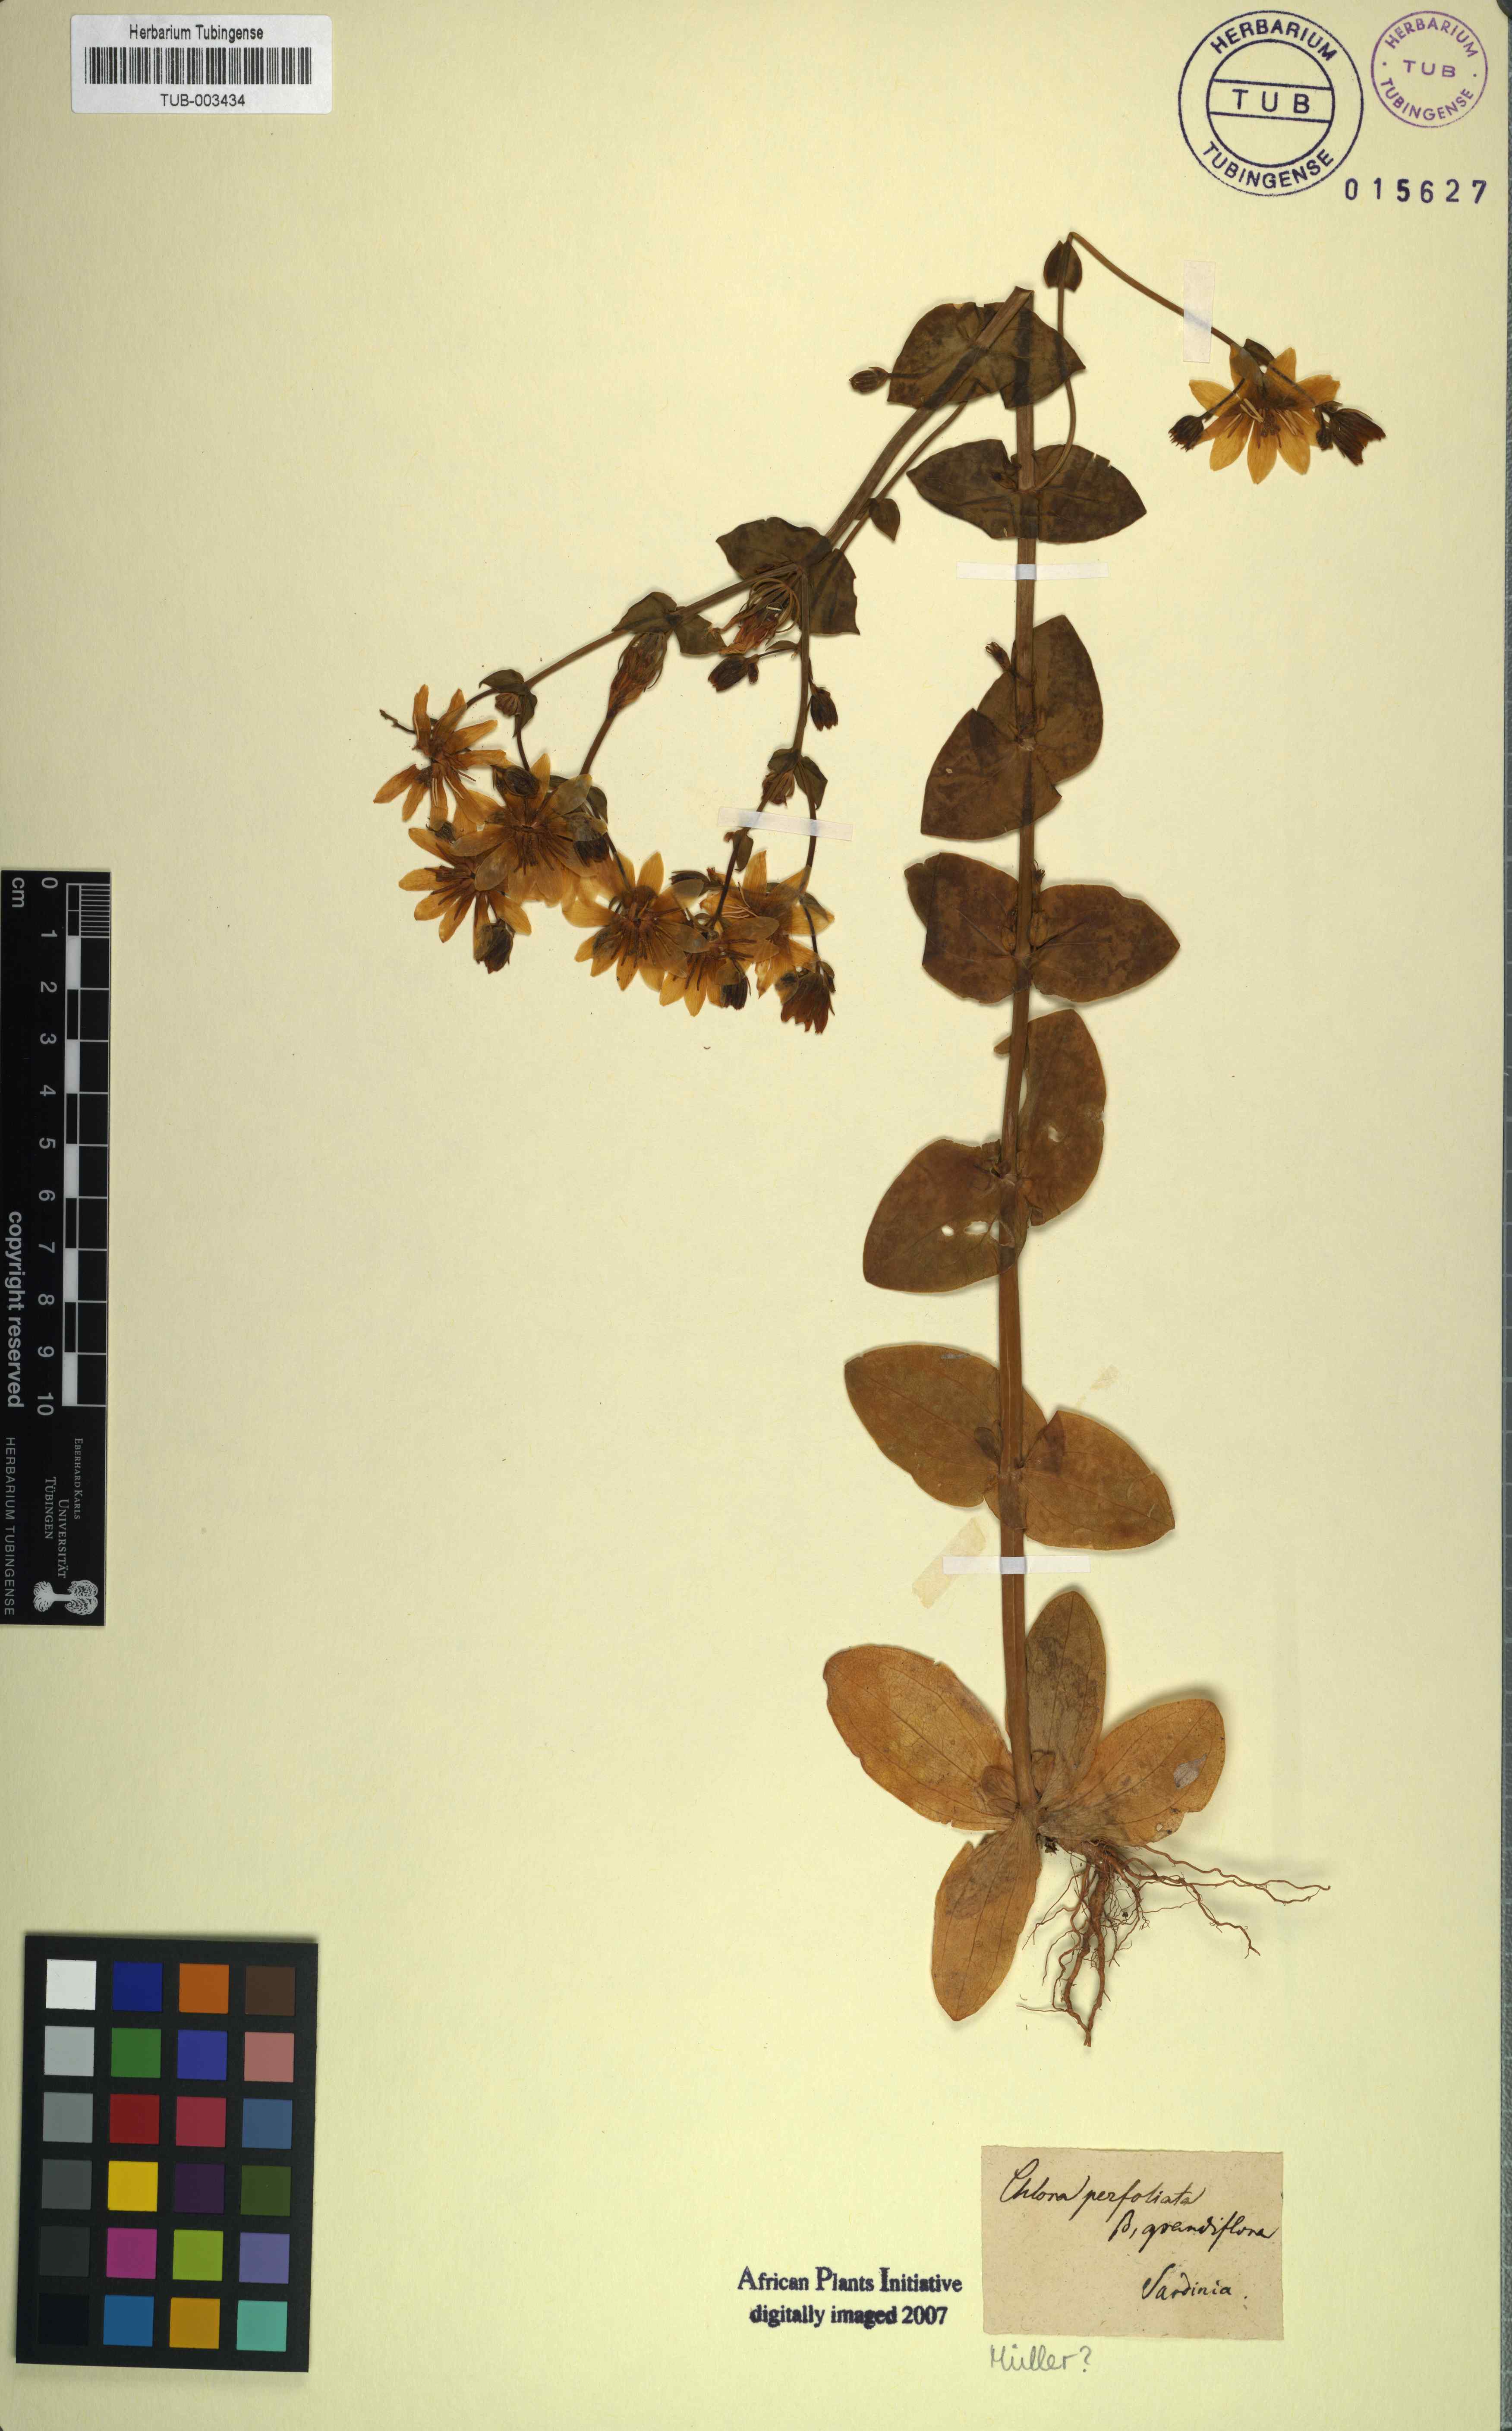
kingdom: Plantae
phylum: Tracheophyta
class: Magnoliopsida
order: Gentianales
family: Gentianaceae
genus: Blackstonia
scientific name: Blackstonia perfoliata
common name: Yellow-wort
